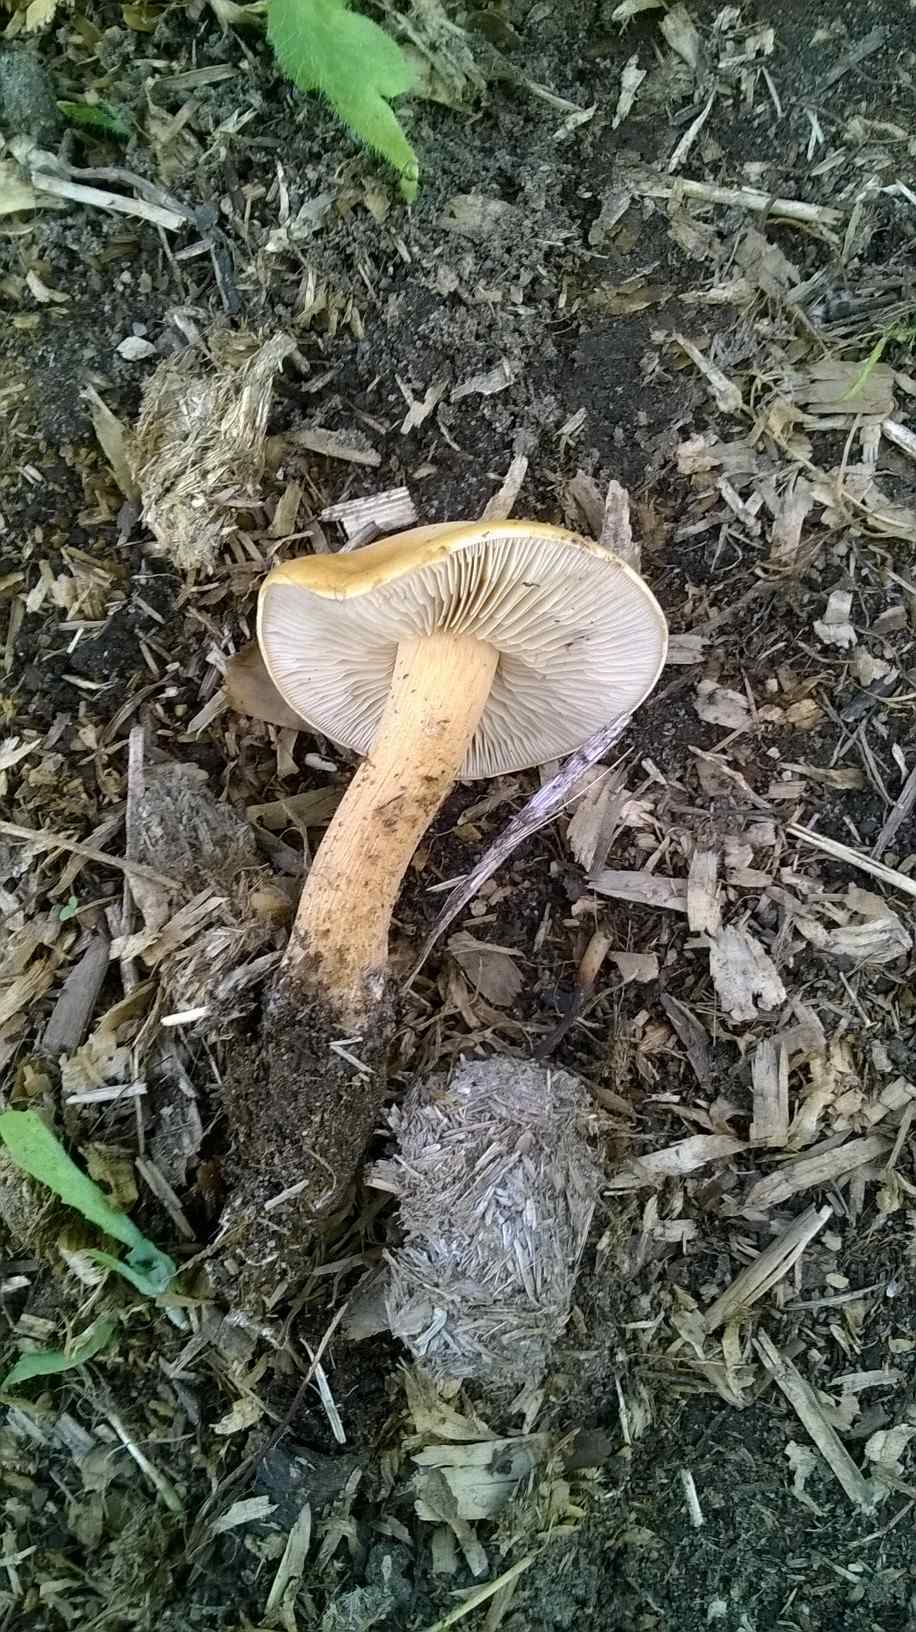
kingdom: Fungi
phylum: Basidiomycota
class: Agaricomycetes
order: Agaricales
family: Strophariaceae
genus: Agrocybe
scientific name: Agrocybe putaminum
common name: træflis-agerhat
